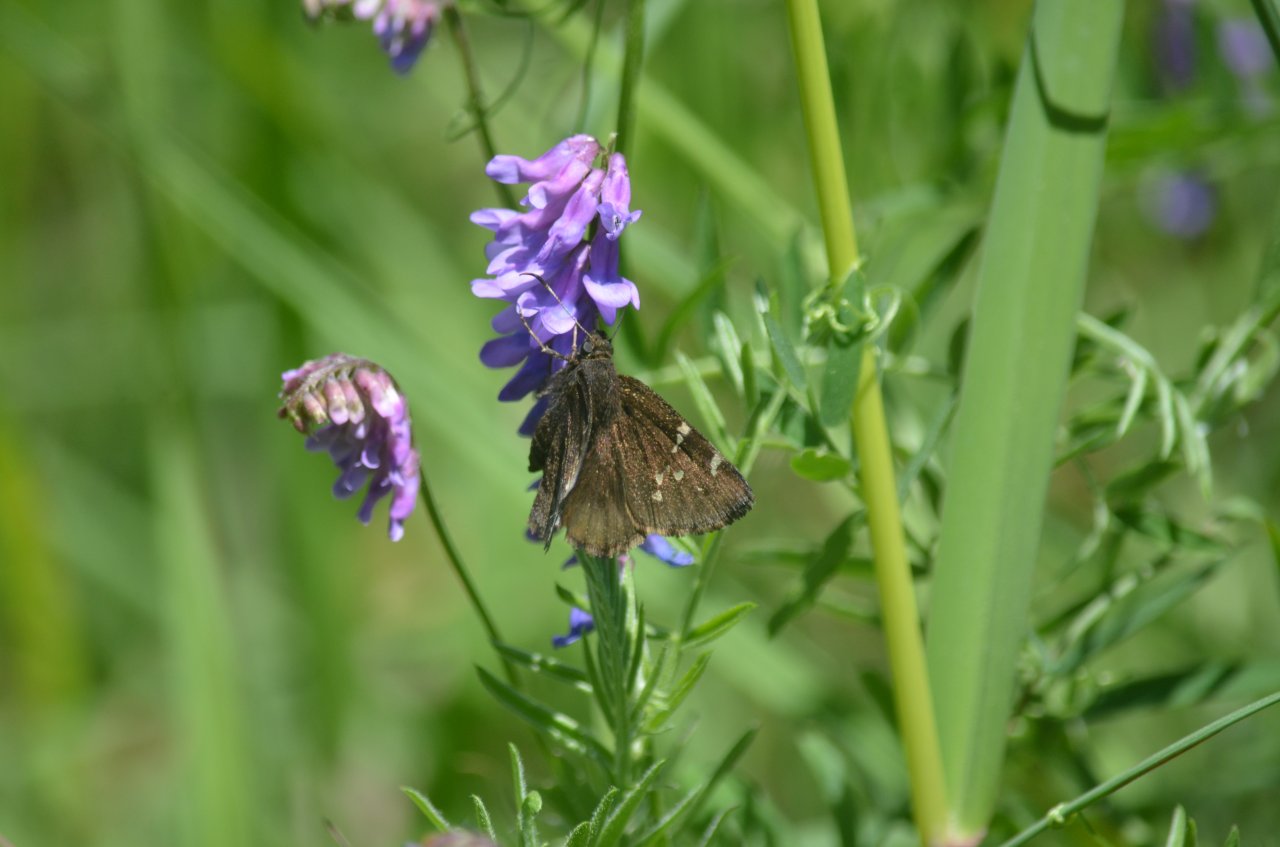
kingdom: Animalia
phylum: Arthropoda
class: Insecta
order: Lepidoptera
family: Hesperiidae
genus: Autochton
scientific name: Autochton
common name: Northern Cloudywing
